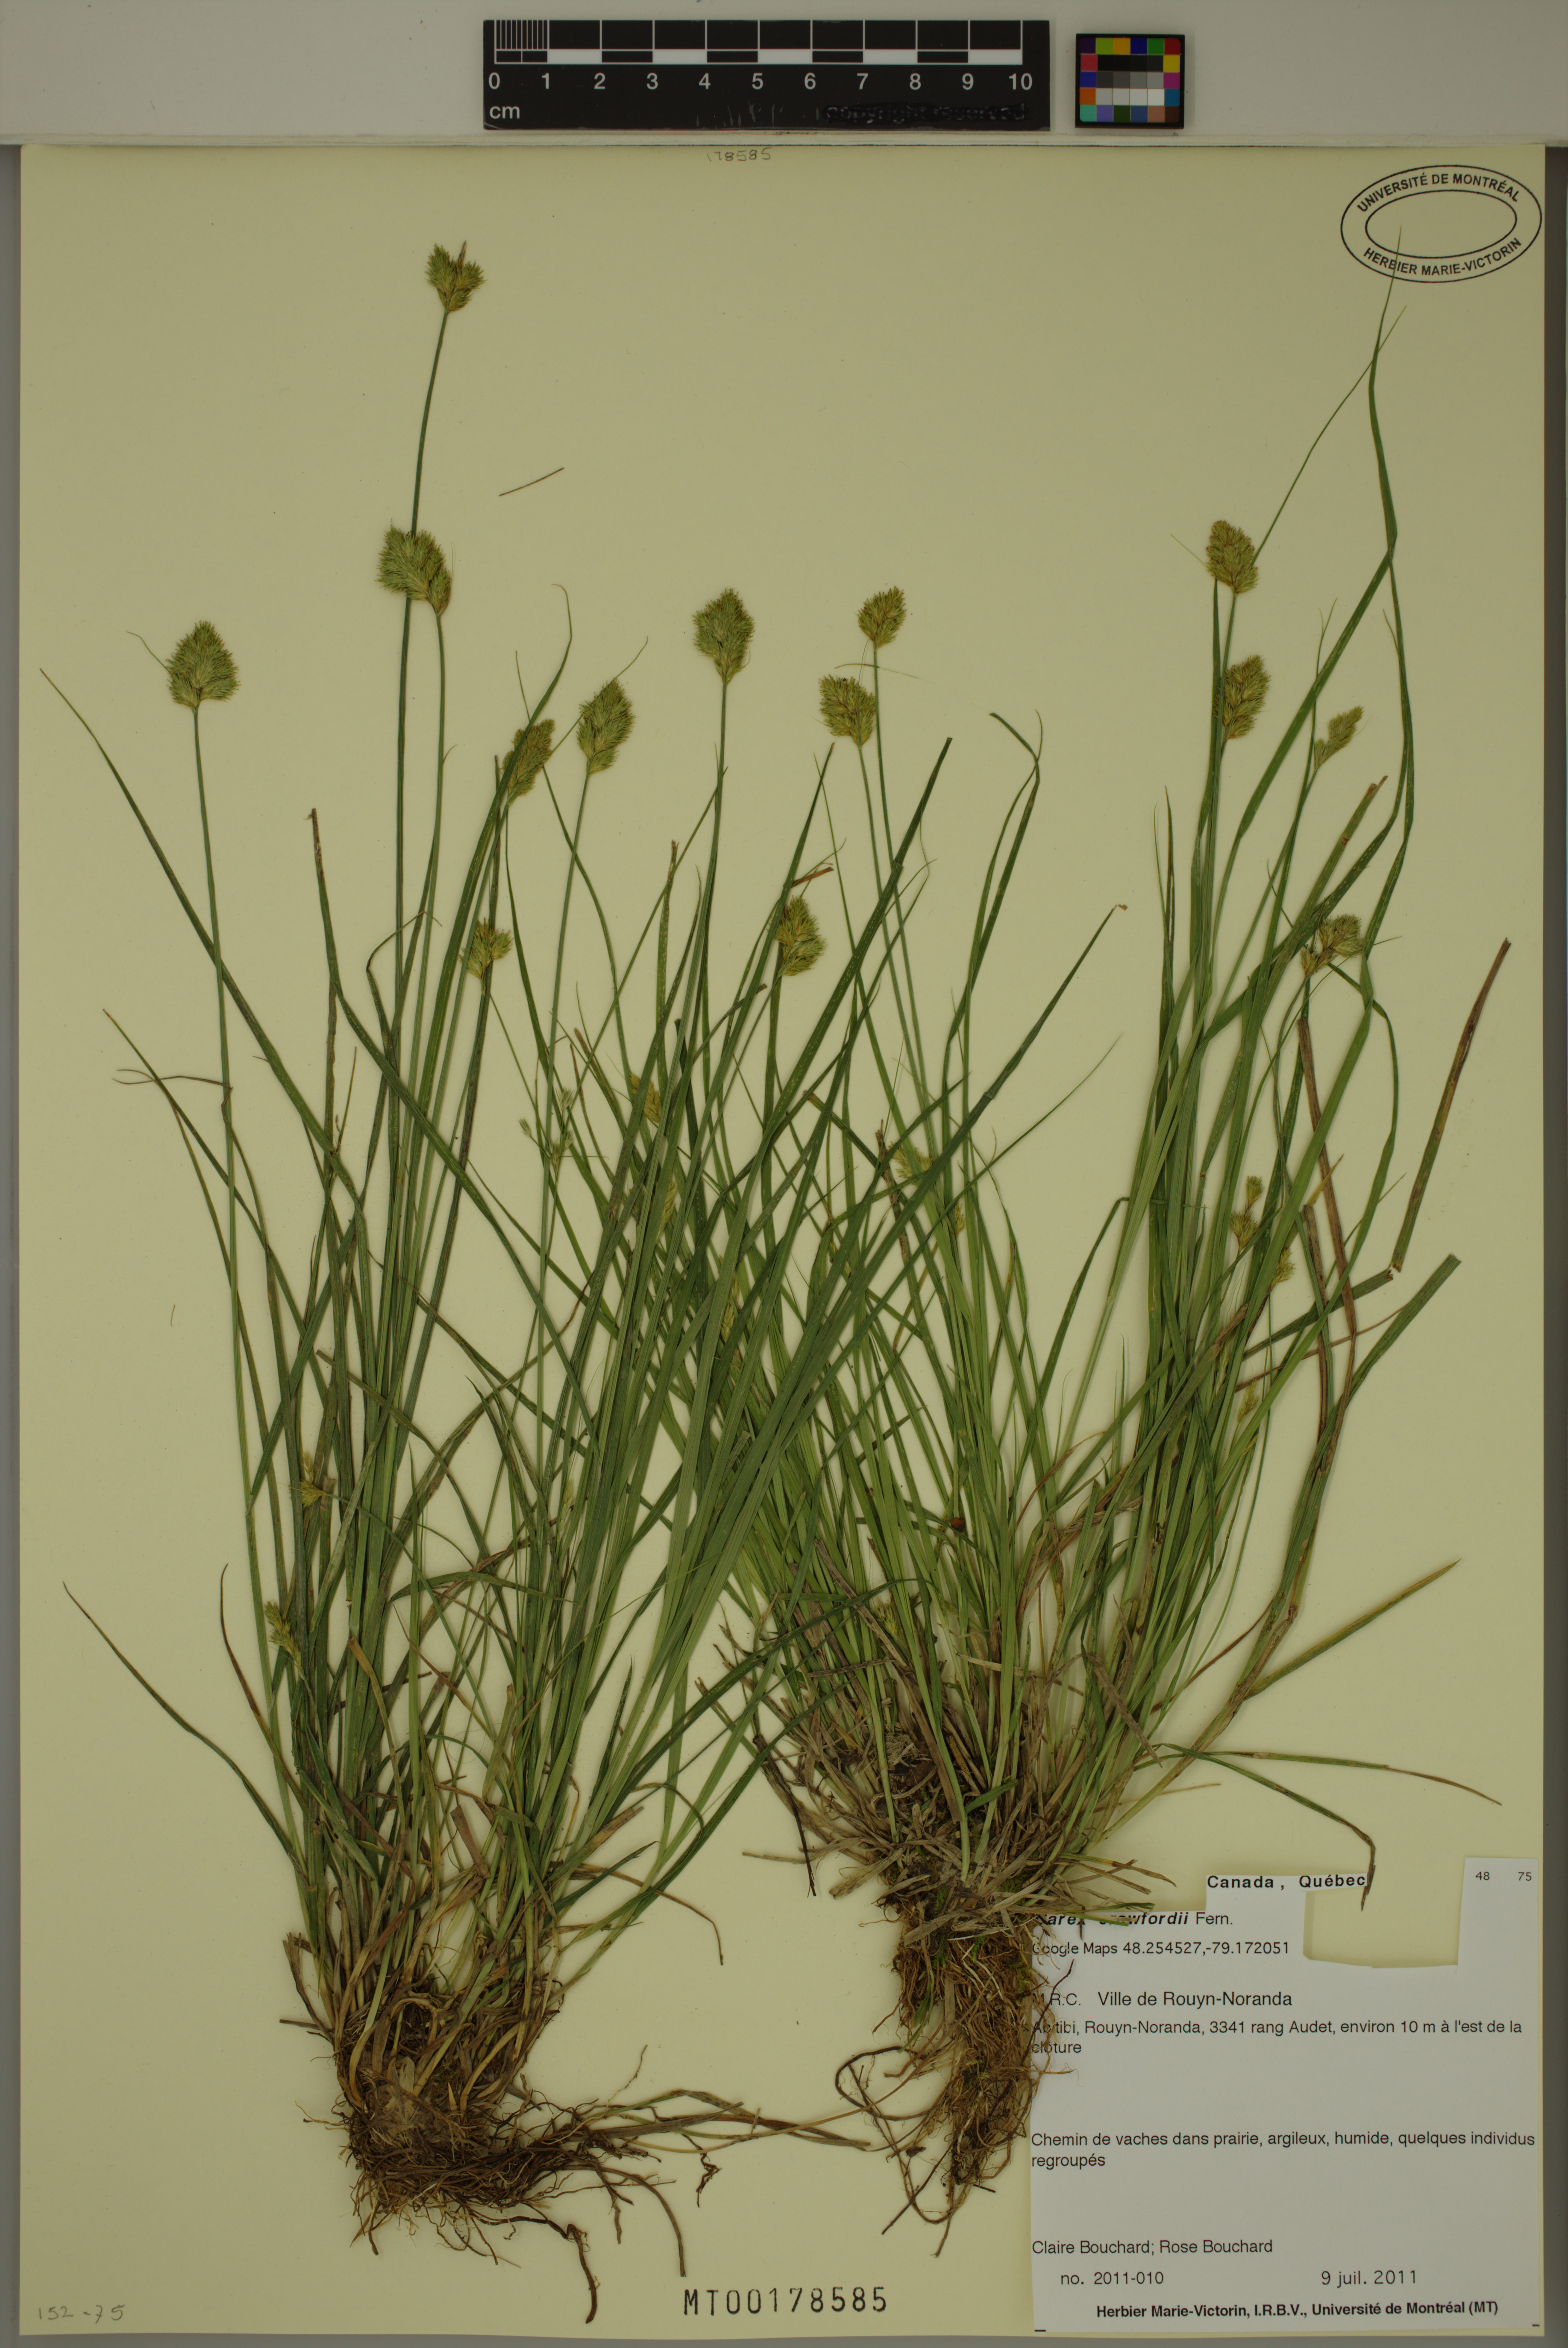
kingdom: Plantae
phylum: Tracheophyta
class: Liliopsida
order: Poales
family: Cyperaceae
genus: Carex
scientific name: Carex crawfordii
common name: Crawford's sedge
